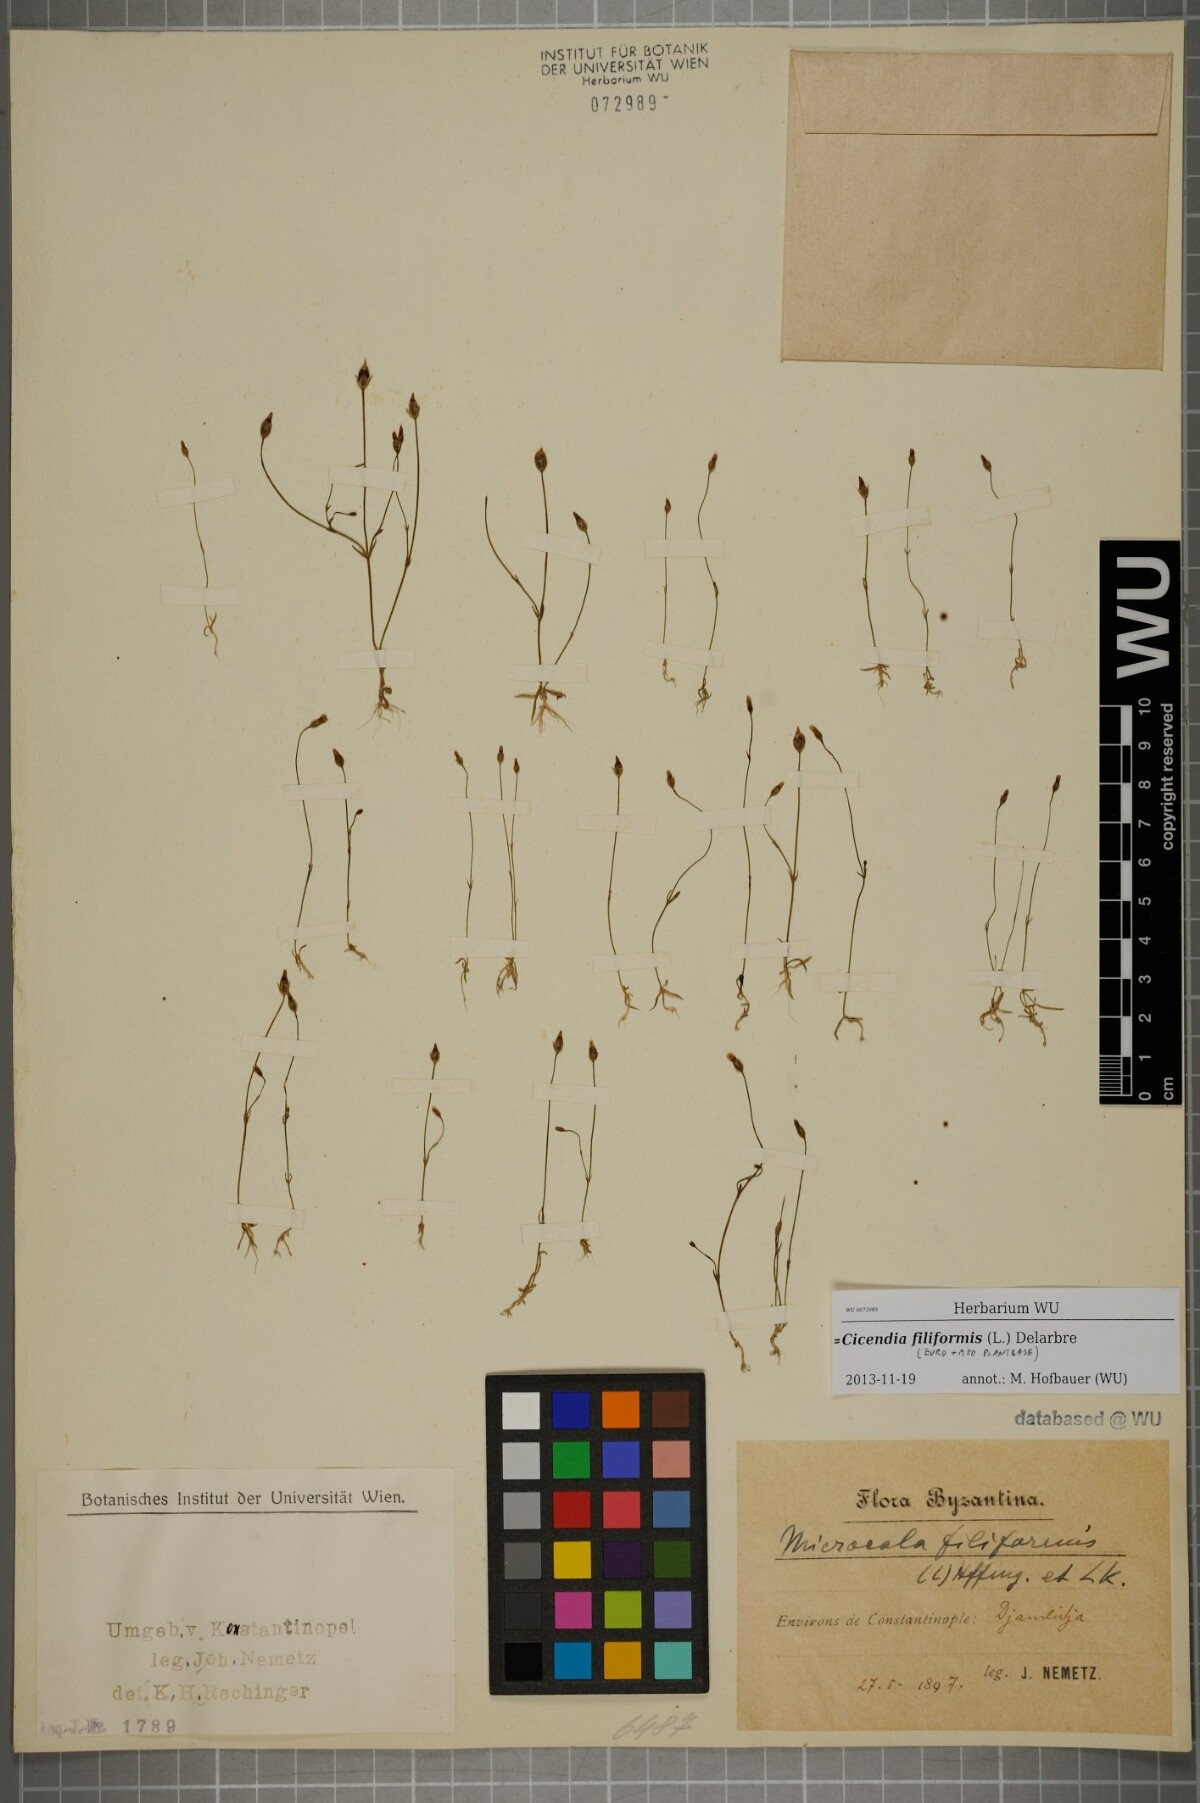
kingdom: Plantae
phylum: Tracheophyta
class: Magnoliopsida
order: Gentianales
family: Gentianaceae
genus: Cicendia
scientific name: Cicendia filiformis
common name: Yellow centaury
